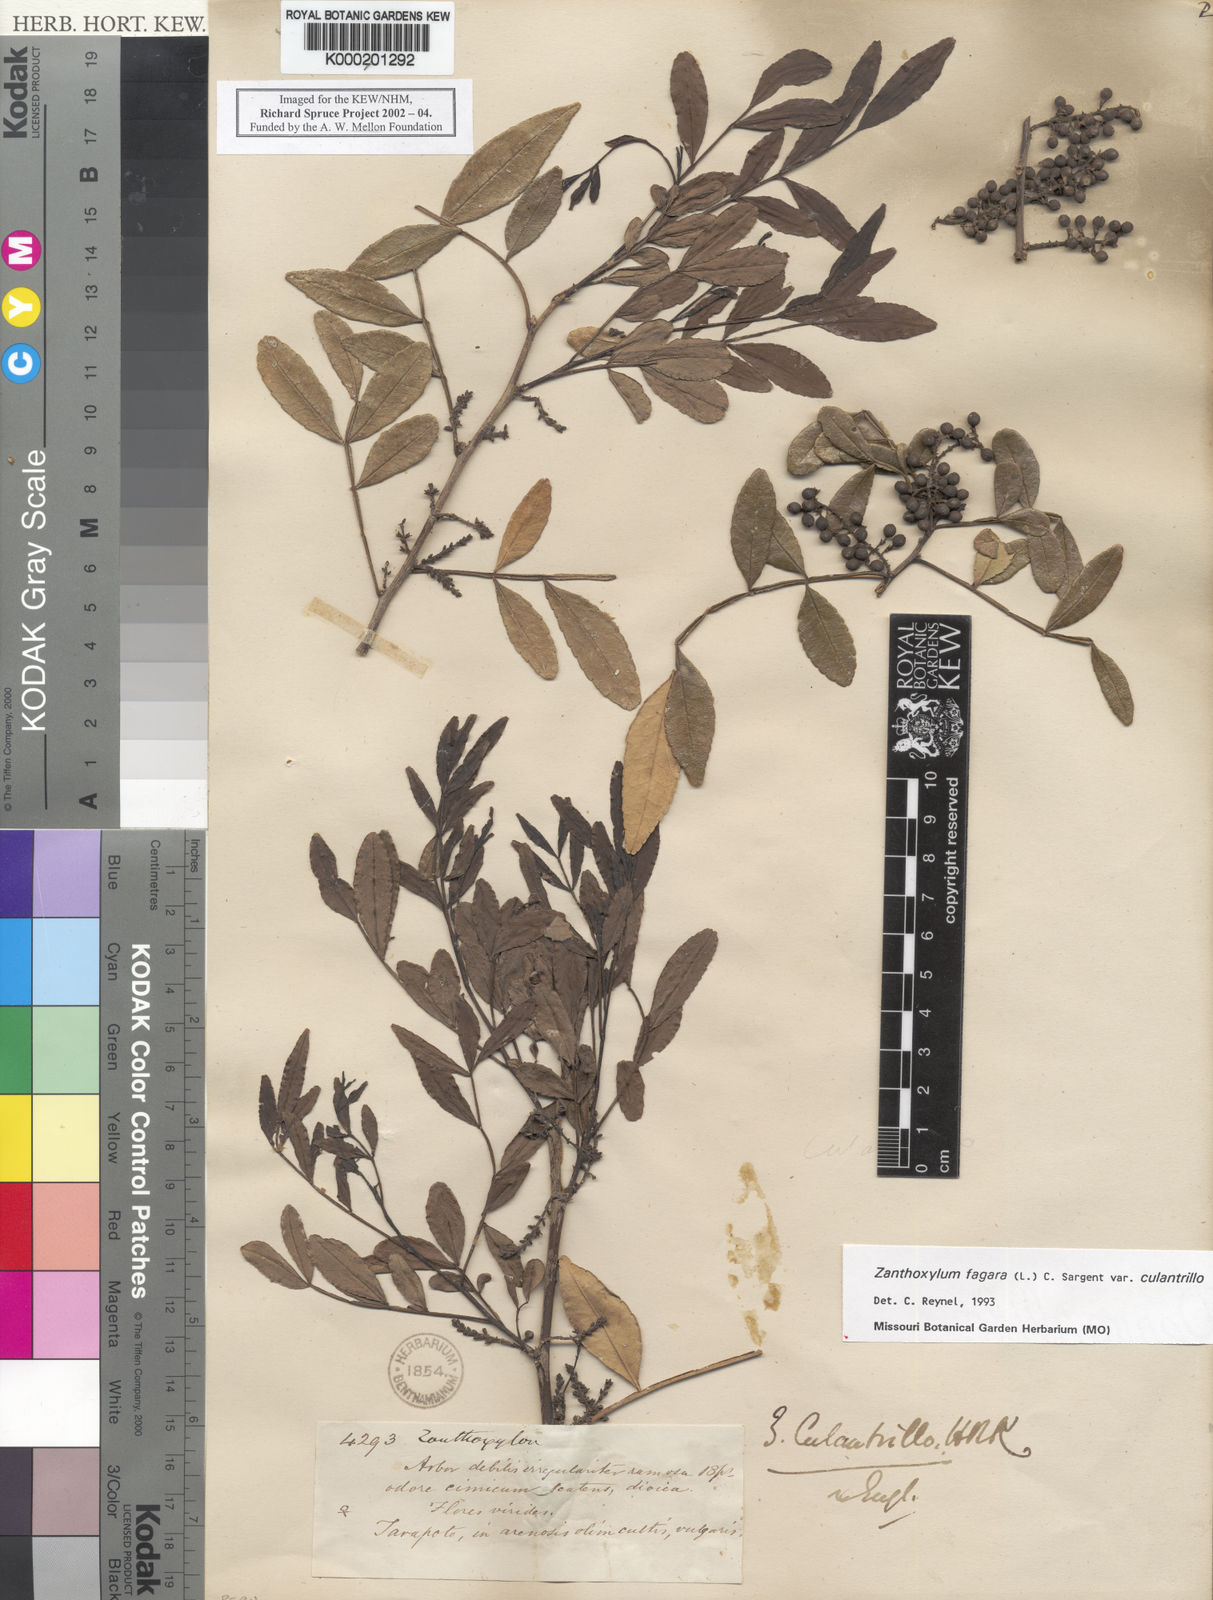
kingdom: Plantae
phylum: Tracheophyta
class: Magnoliopsida
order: Sapindales
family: Rutaceae
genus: Zanthoxylum
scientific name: Zanthoxylum fagara
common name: Lime prickly-ash
